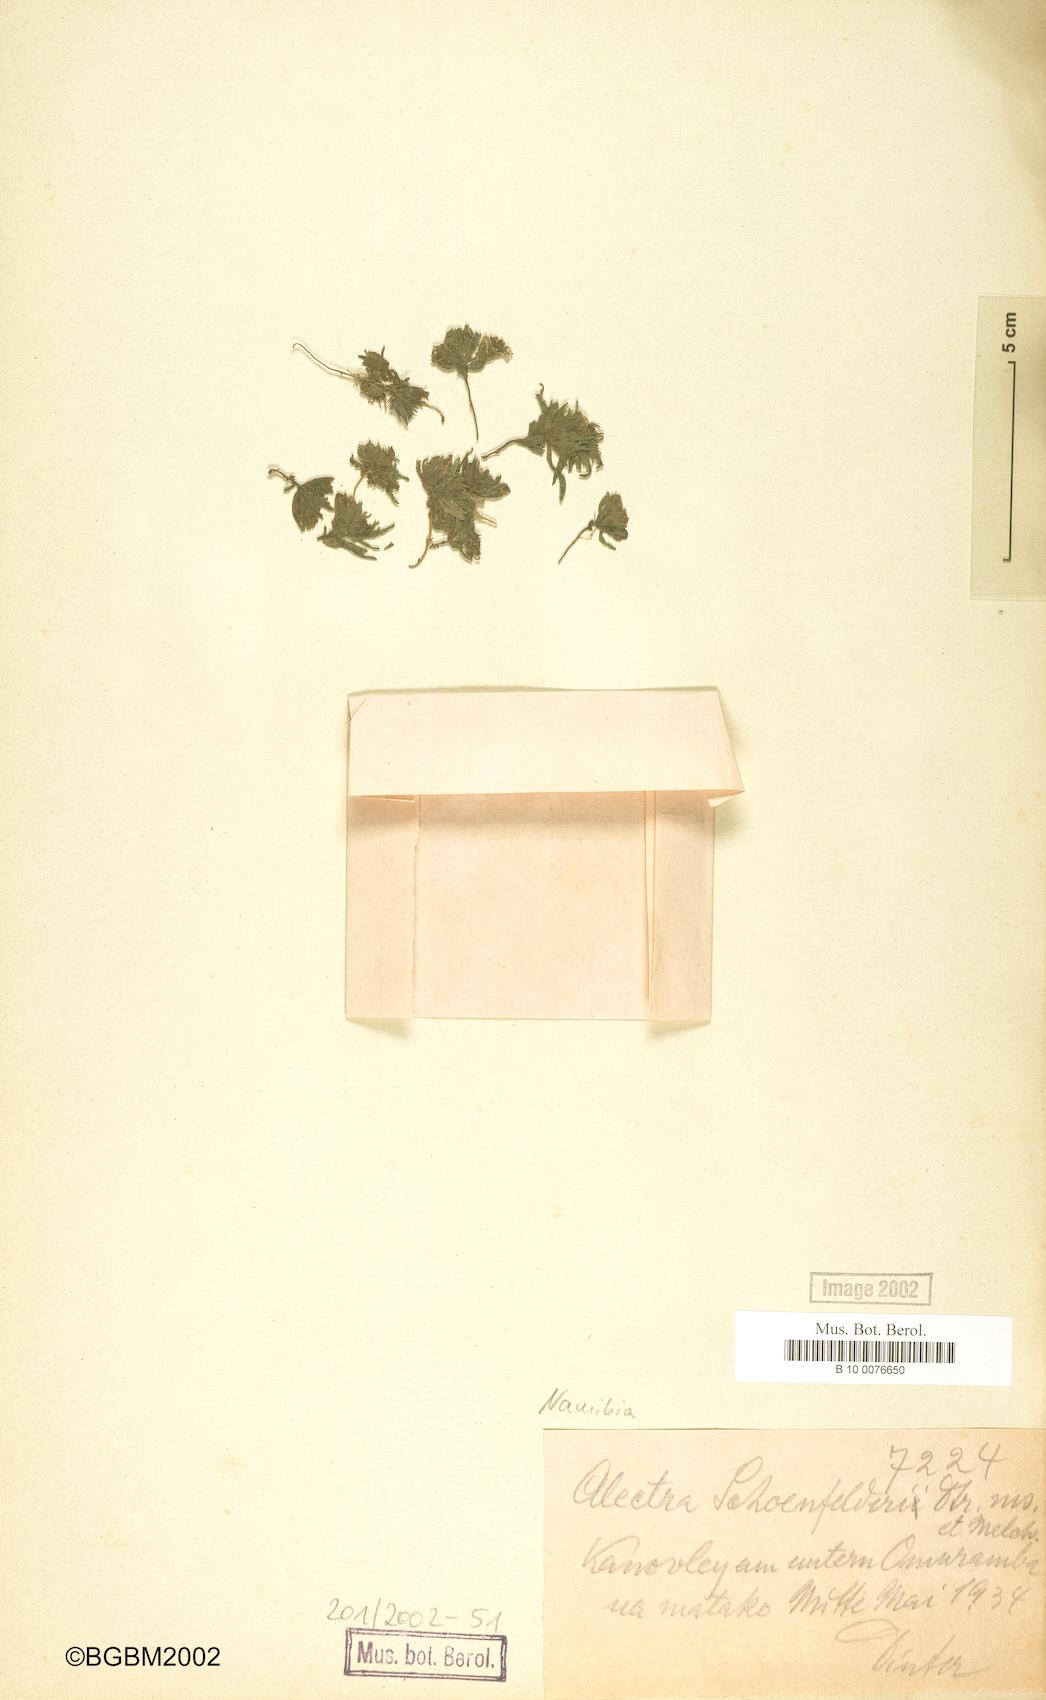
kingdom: Plantae
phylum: Tracheophyta
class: Magnoliopsida
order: Lamiales
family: Orobanchaceae
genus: Alectra
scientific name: Alectra schoenfelderi
